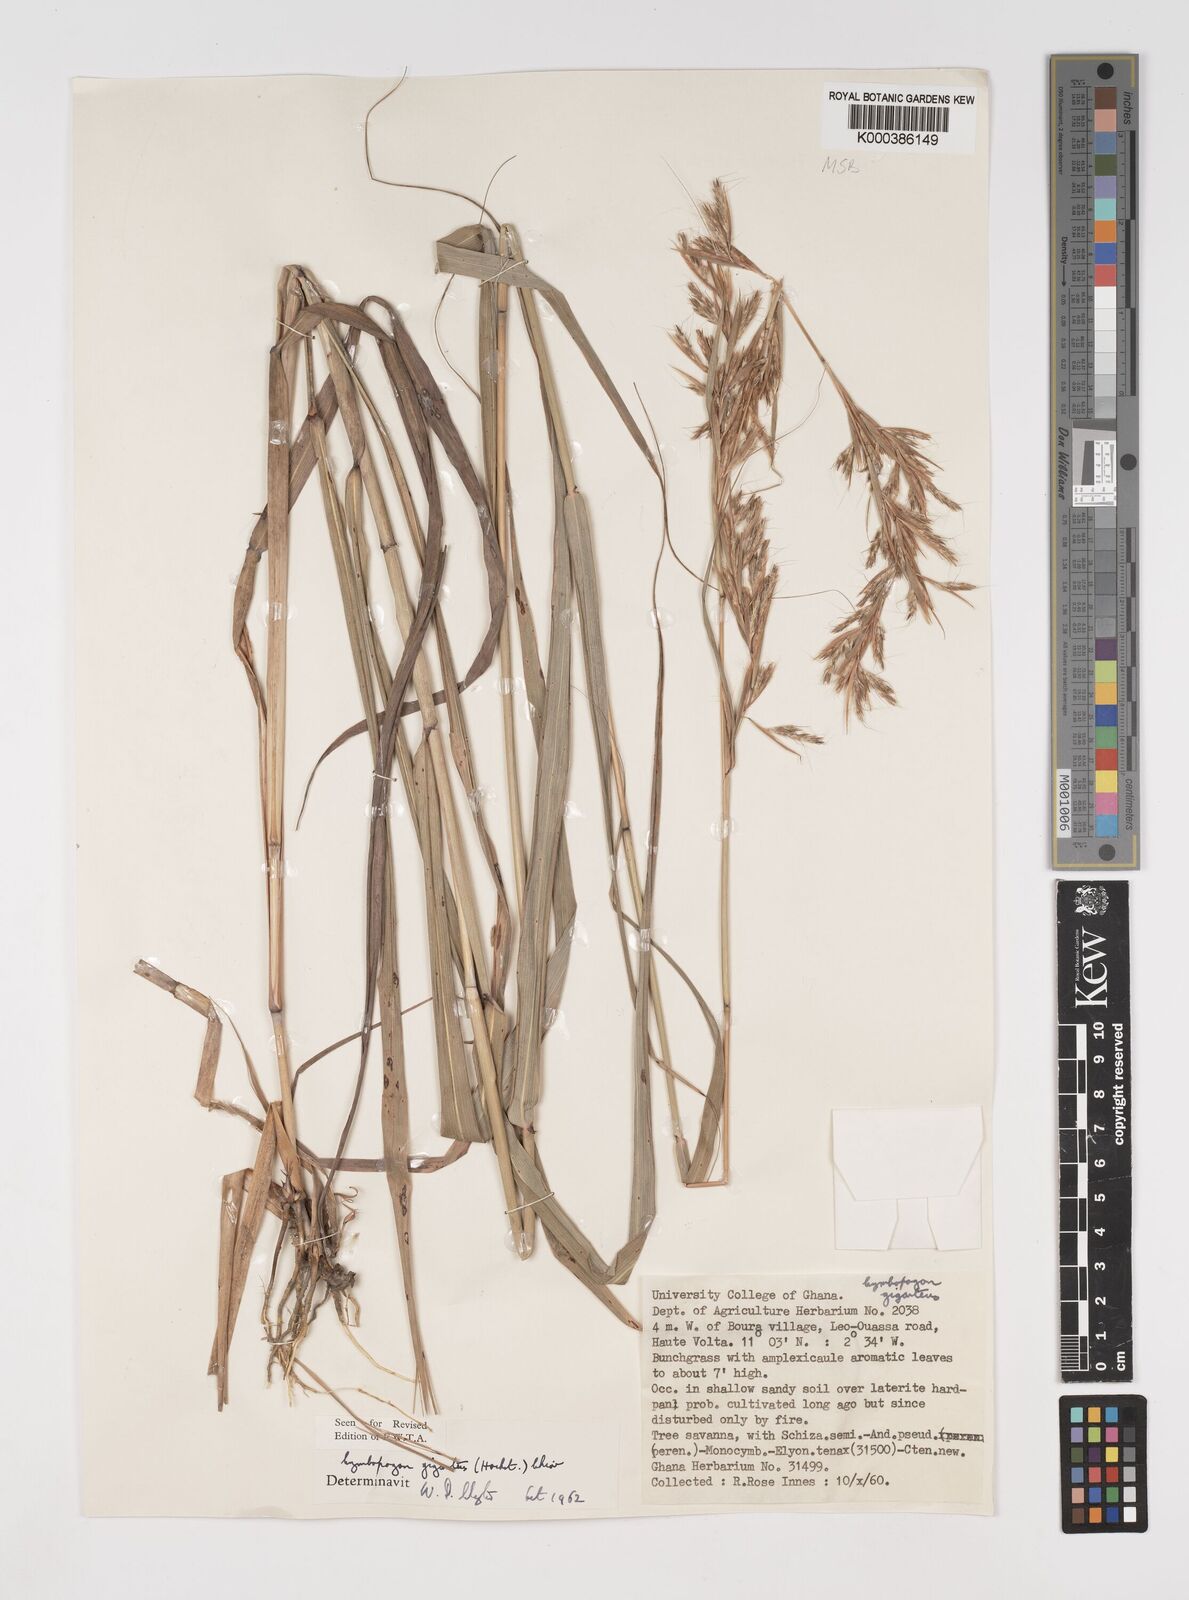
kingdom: Plantae
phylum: Tracheophyta
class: Liliopsida
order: Poales
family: Poaceae
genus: Cymbopogon
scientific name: Cymbopogon giganteus
